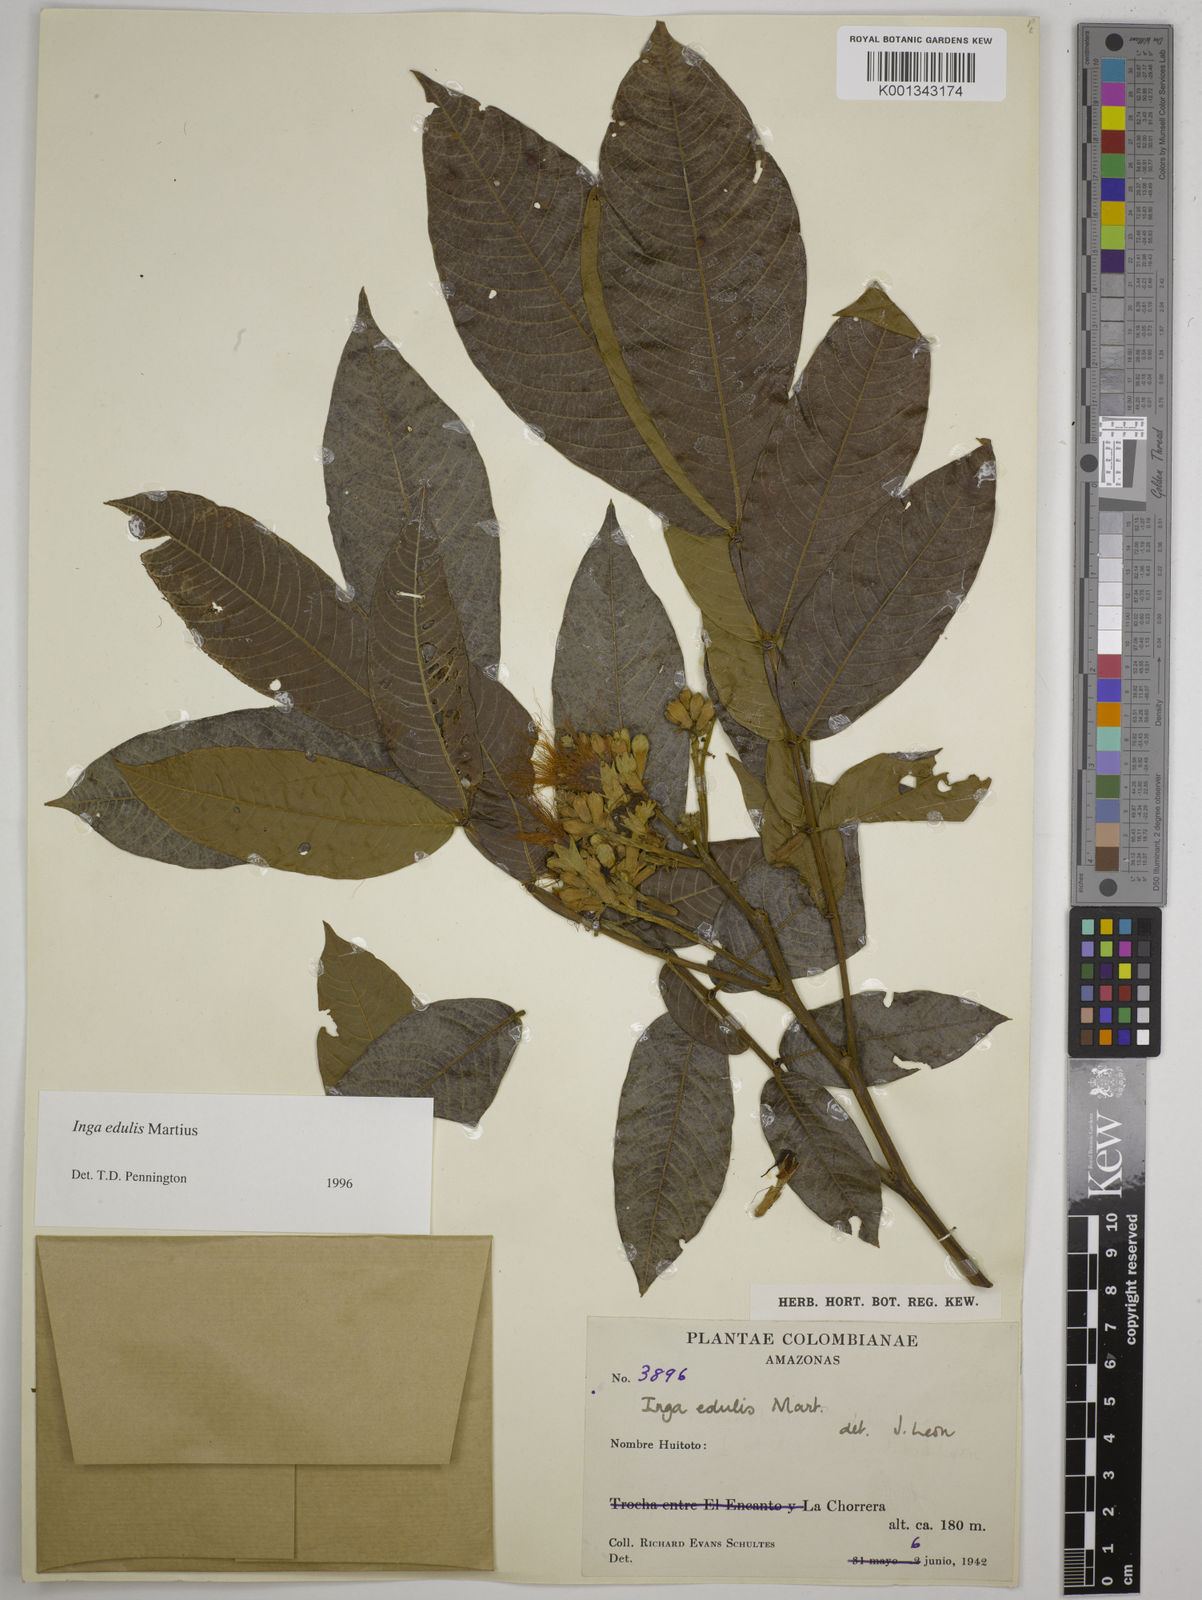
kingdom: Plantae
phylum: Tracheophyta
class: Magnoliopsida
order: Fabales
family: Fabaceae
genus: Inga
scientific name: Inga edulis
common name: Ice cream bean
